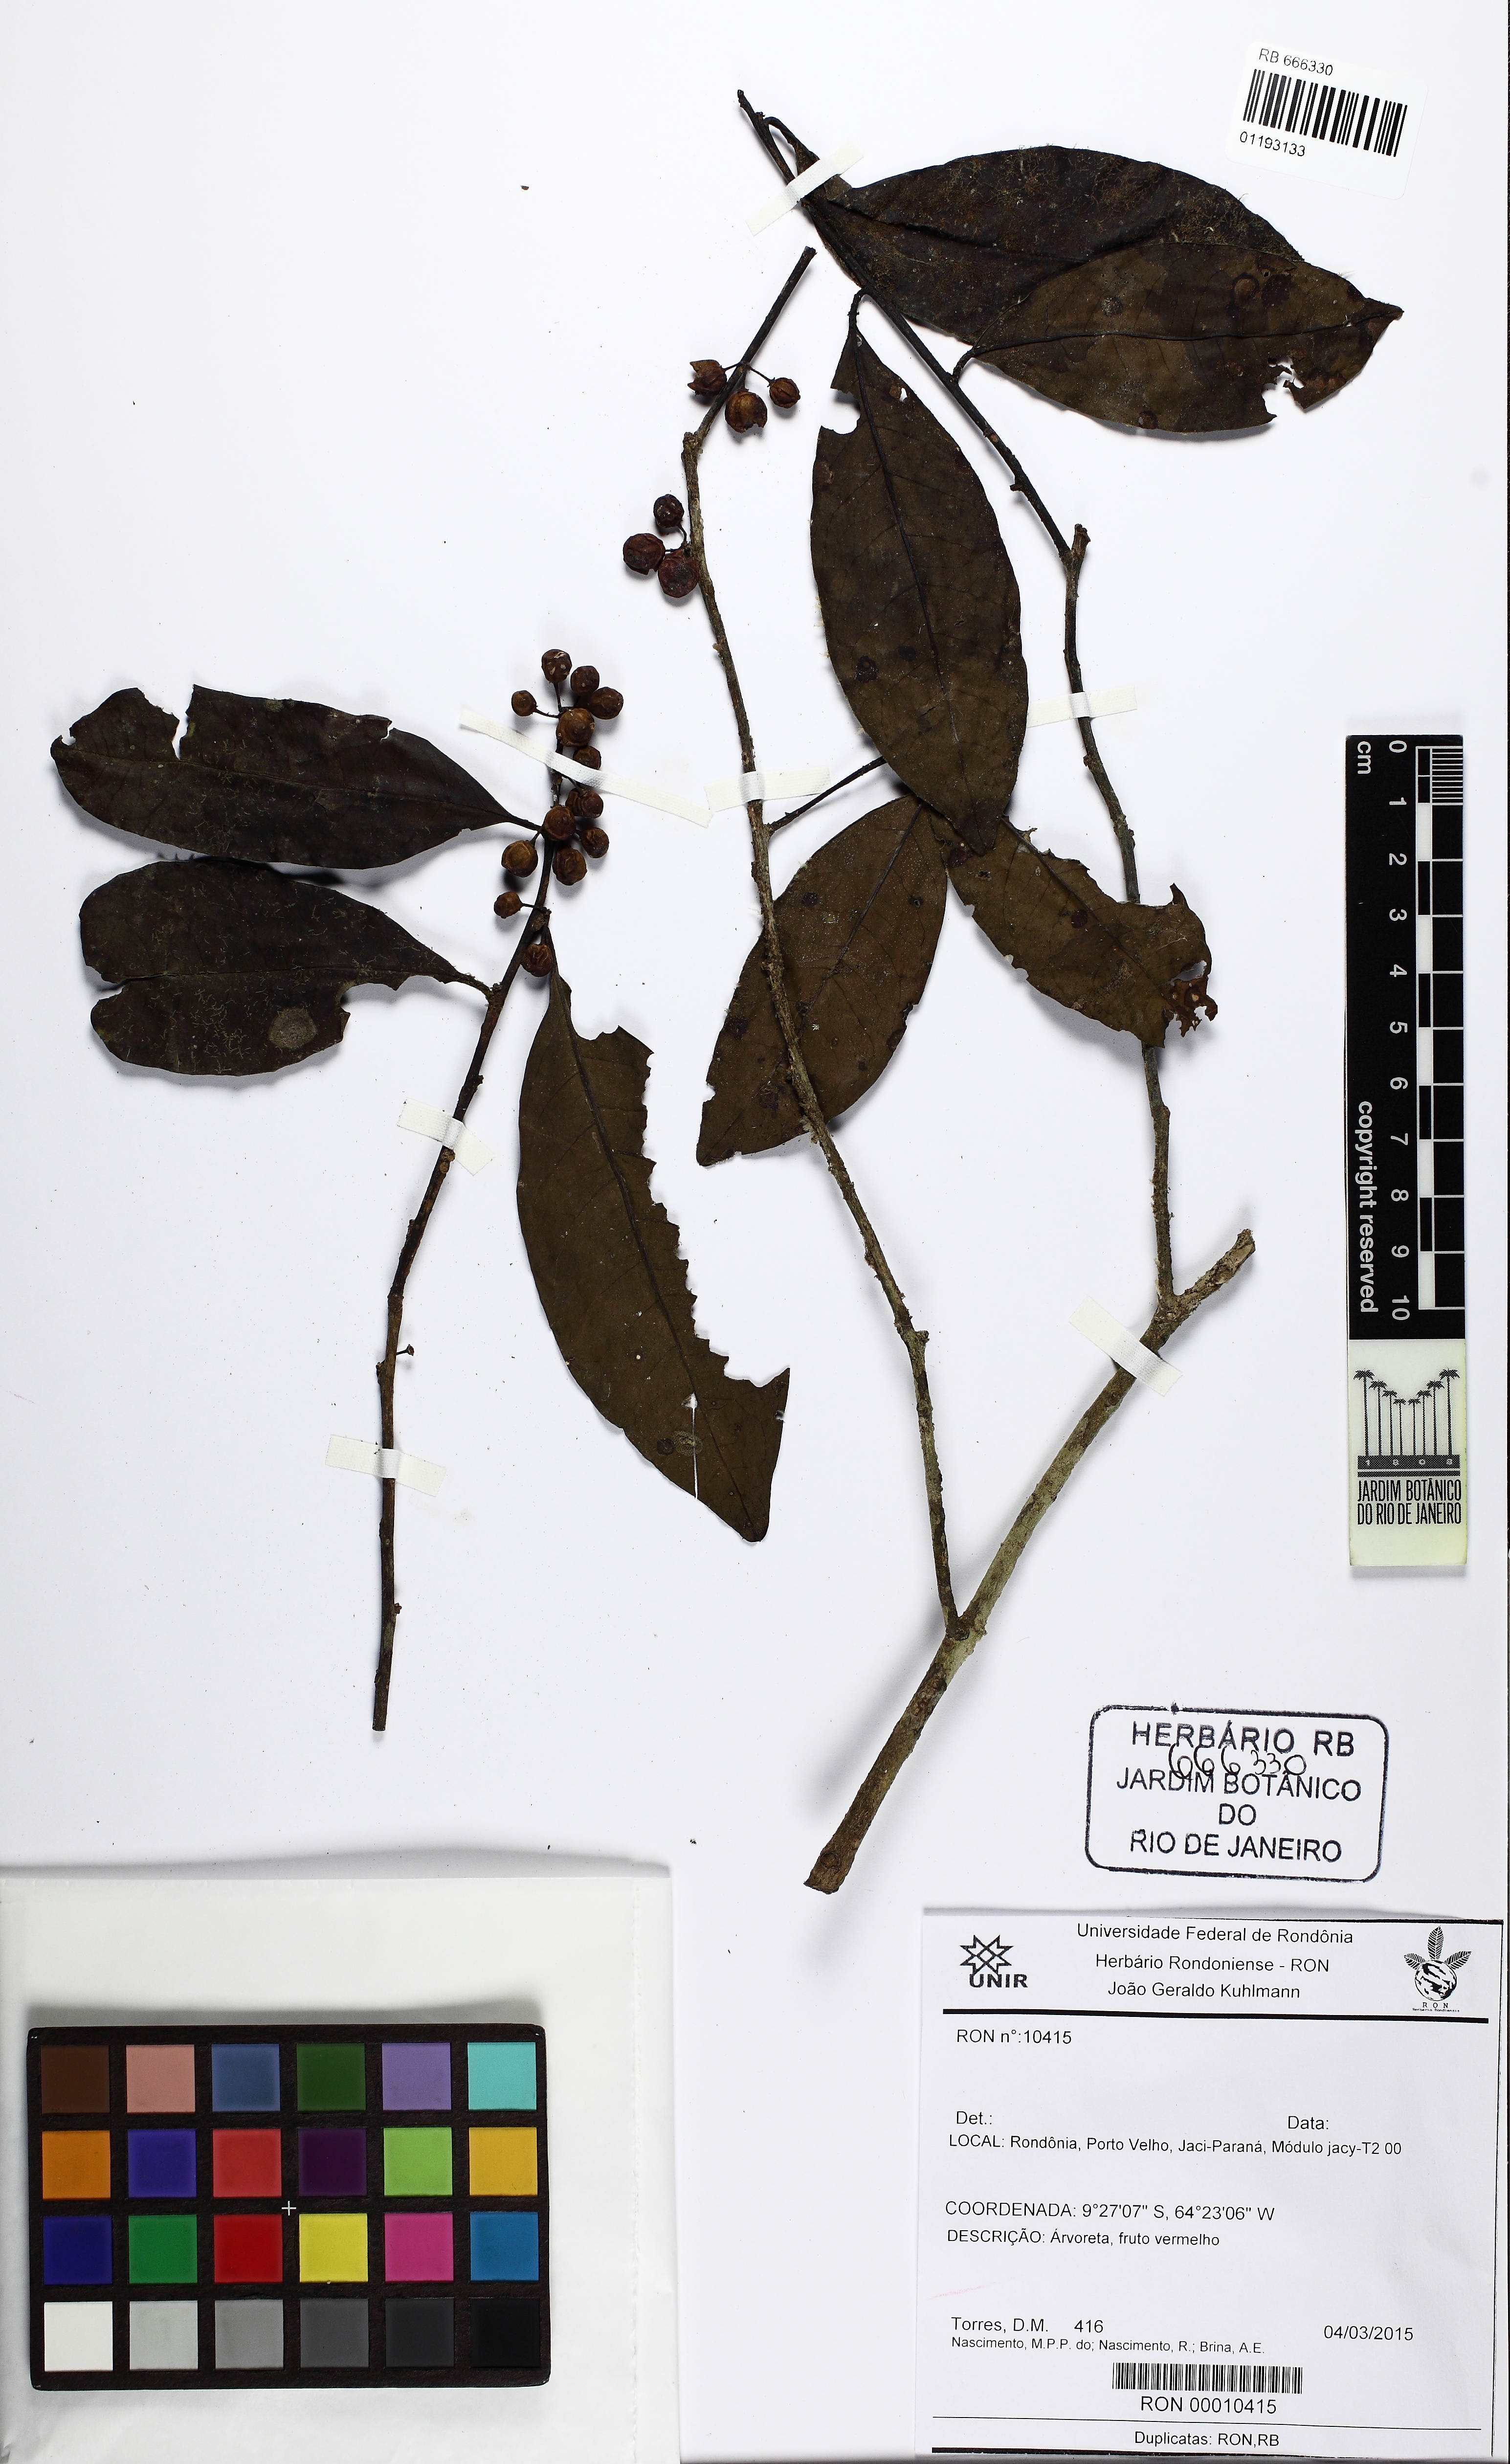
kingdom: Plantae
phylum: Tracheophyta
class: Magnoliopsida
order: Aquifoliales
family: Aquifoliaceae
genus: Ilex
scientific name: Ilex
